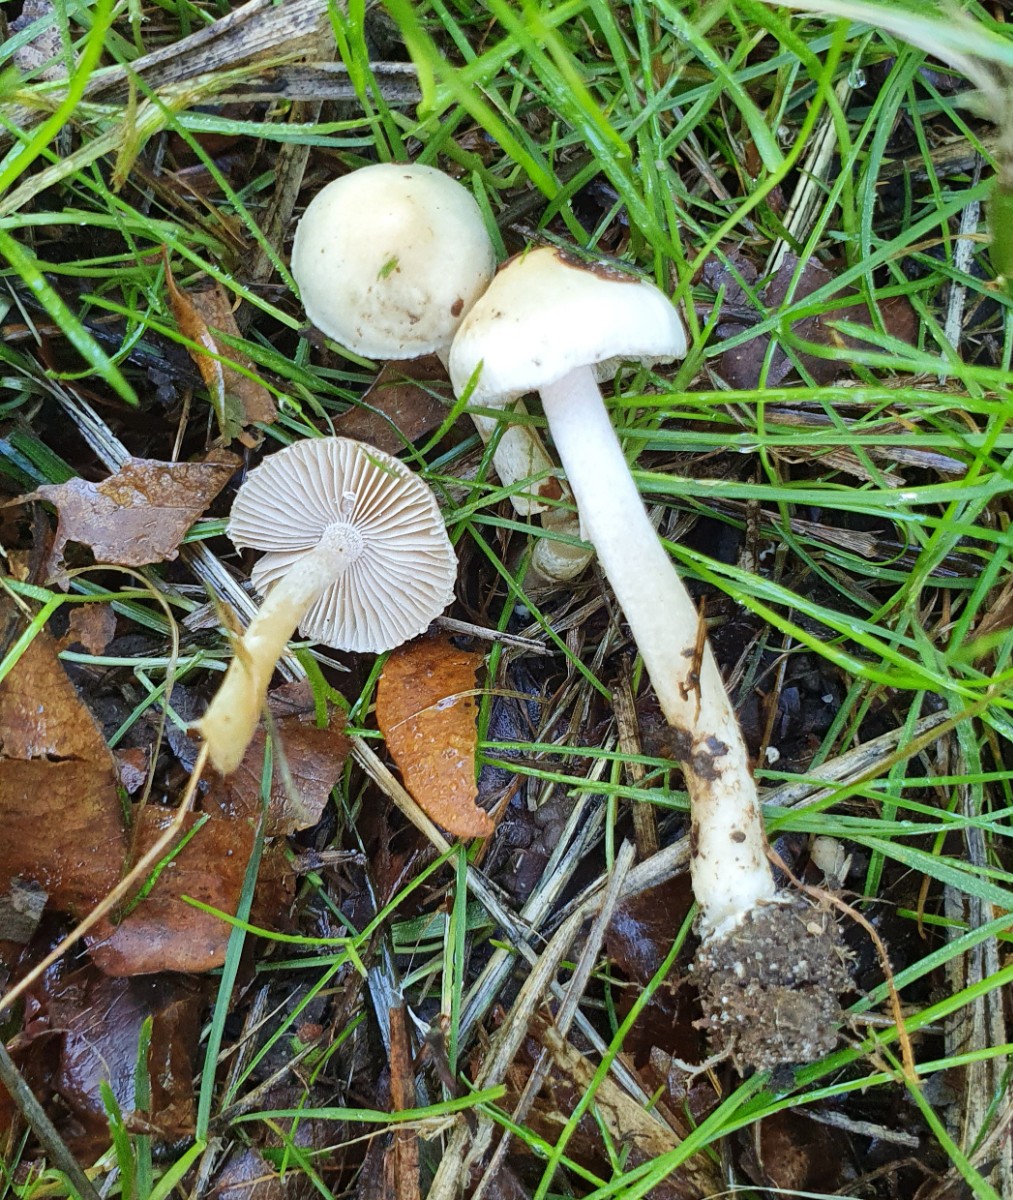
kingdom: Fungi
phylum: Basidiomycota
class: Agaricomycetes
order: Agaricales
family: Inocybaceae
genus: Inocybe
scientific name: Inocybe
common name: almindelig trævlhat
